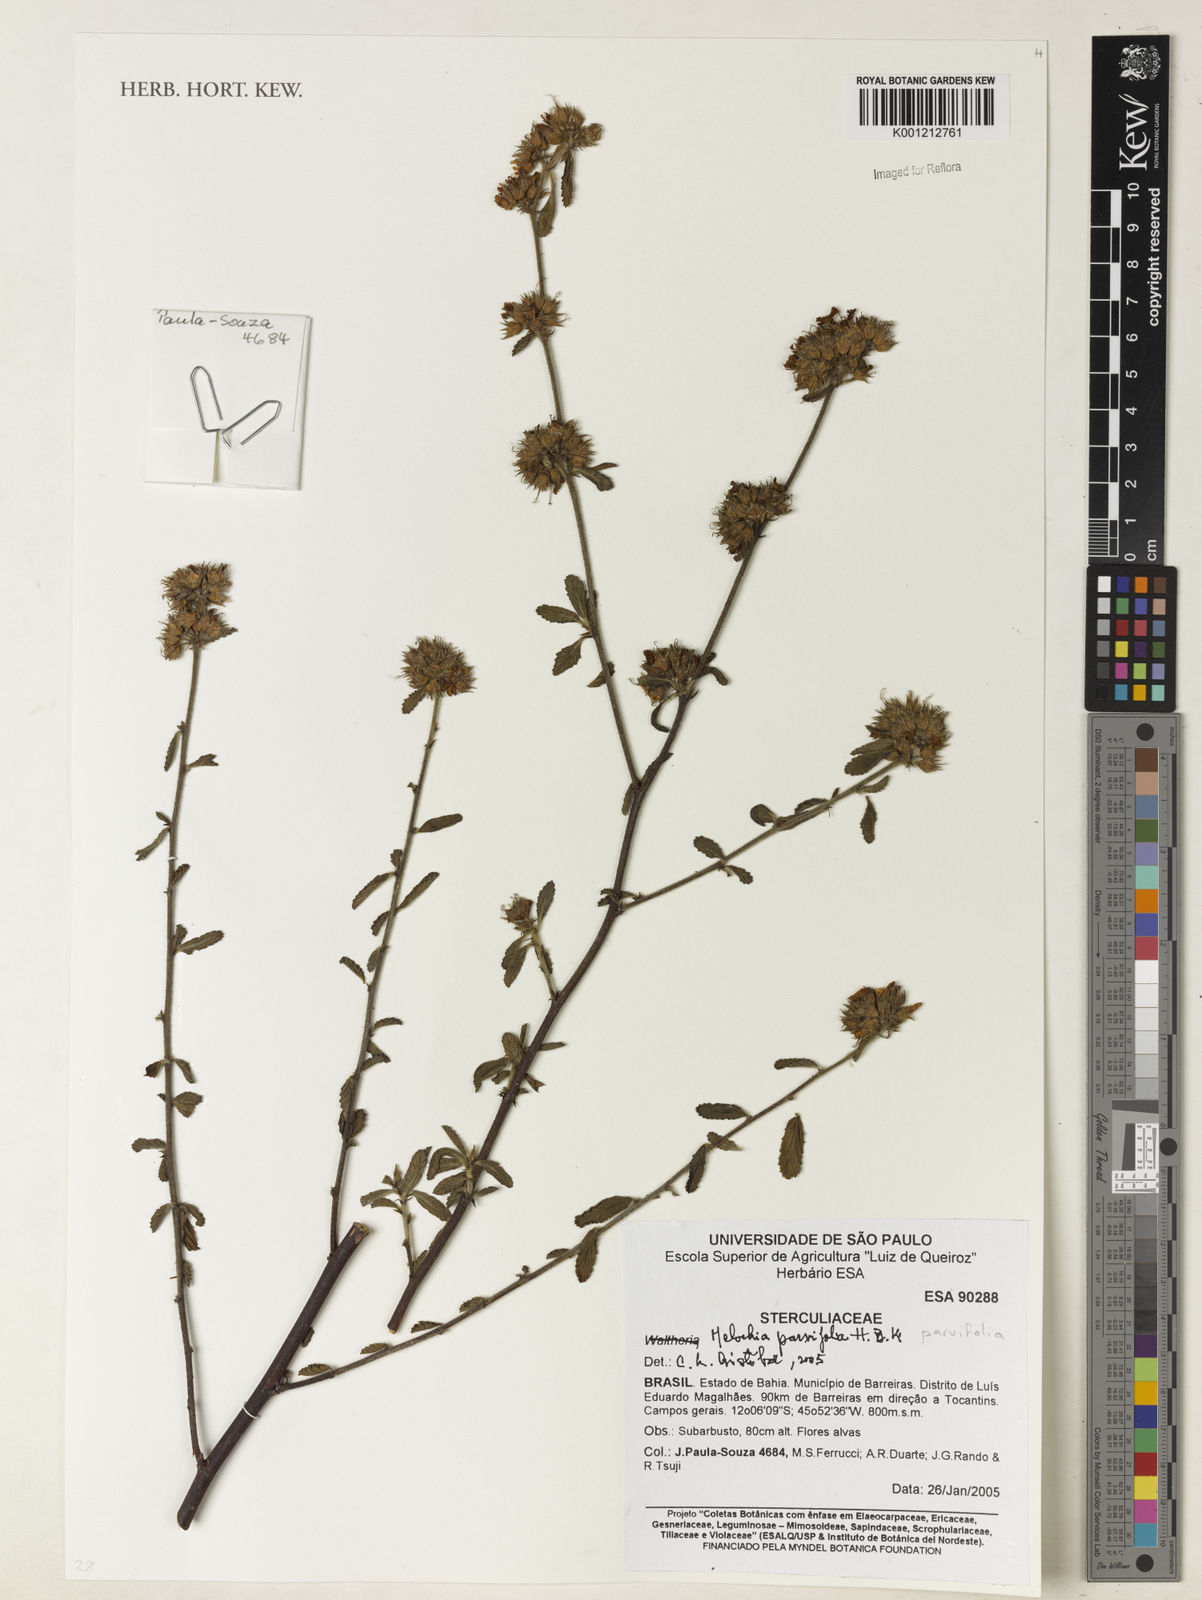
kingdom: Plantae
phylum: Tracheophyta
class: Magnoliopsida
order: Malvales
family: Malvaceae
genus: Melochia
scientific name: Melochia parvifolia
